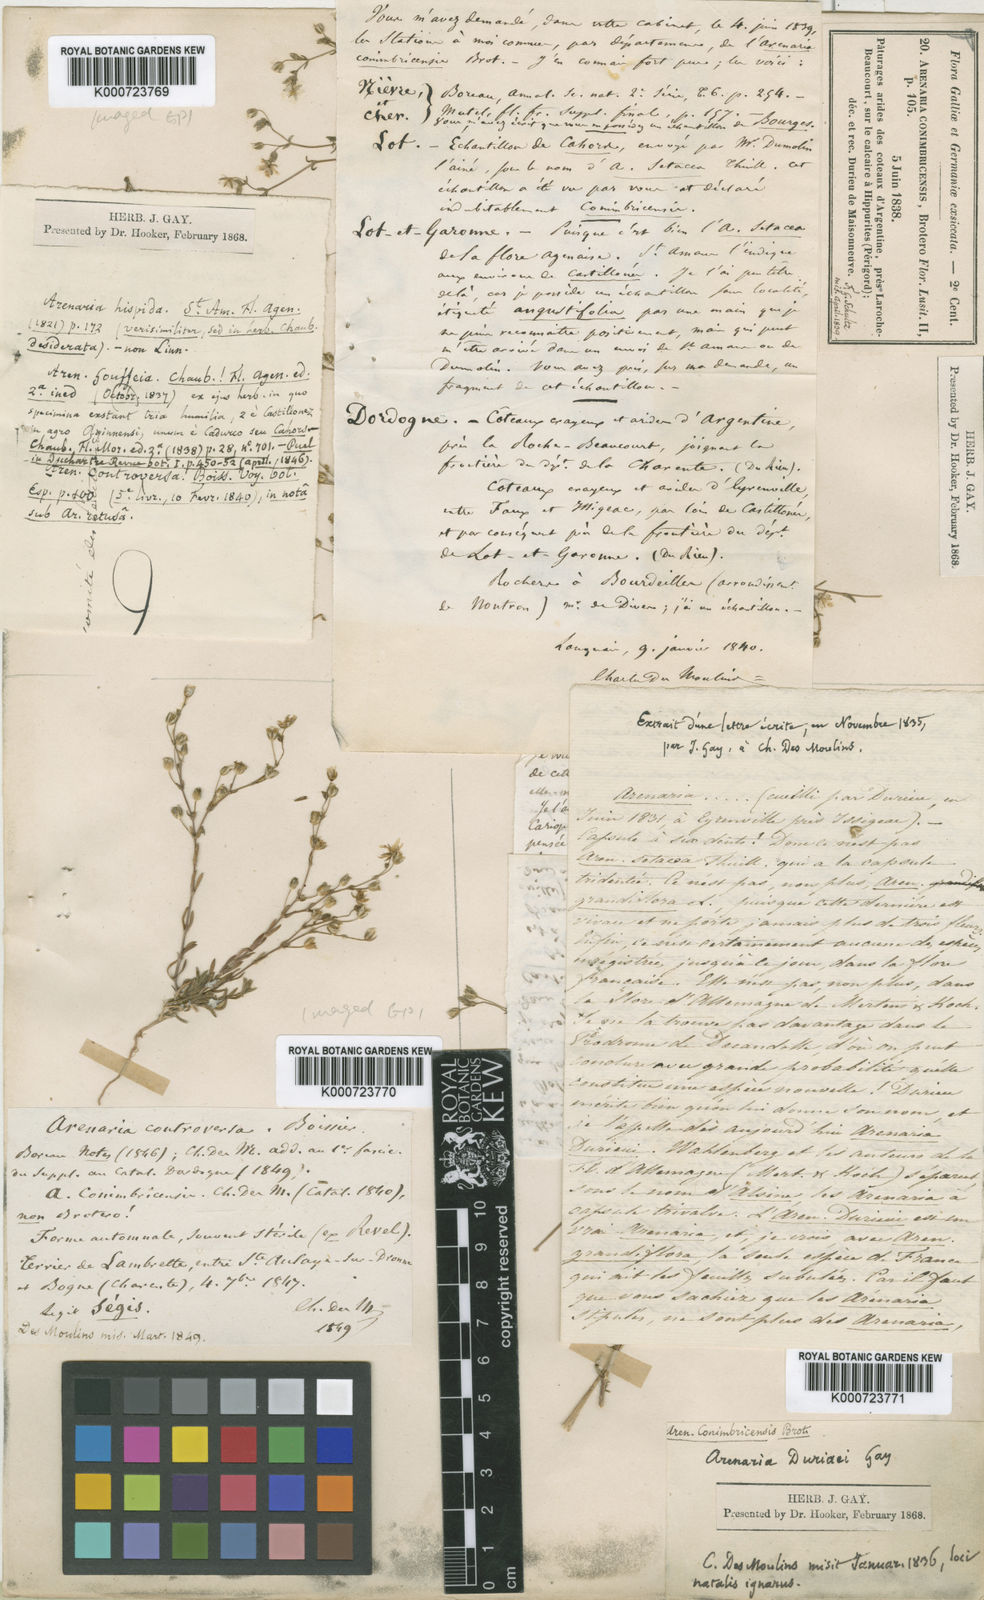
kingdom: Plantae
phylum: Tracheophyta
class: Magnoliopsida
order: Caryophyllales
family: Caryophyllaceae
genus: Arenaria
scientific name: Arenaria controversa
